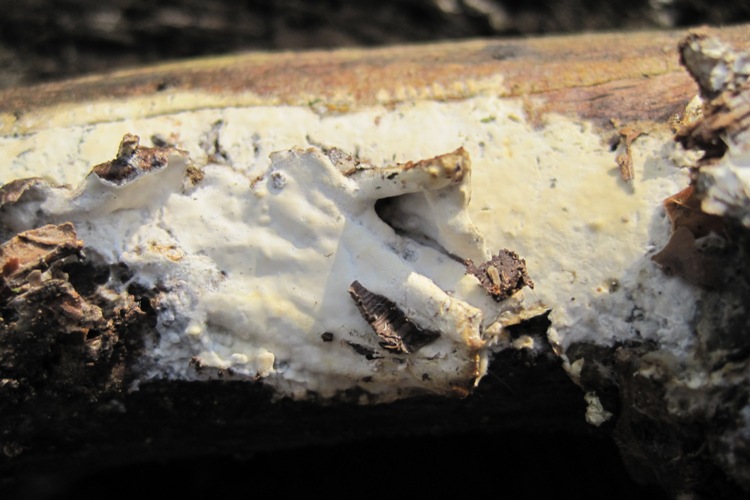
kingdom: Fungi
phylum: Basidiomycota
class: Agaricomycetes
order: Polyporales
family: Irpicaceae
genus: Efibula
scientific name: Efibula tuberculata
